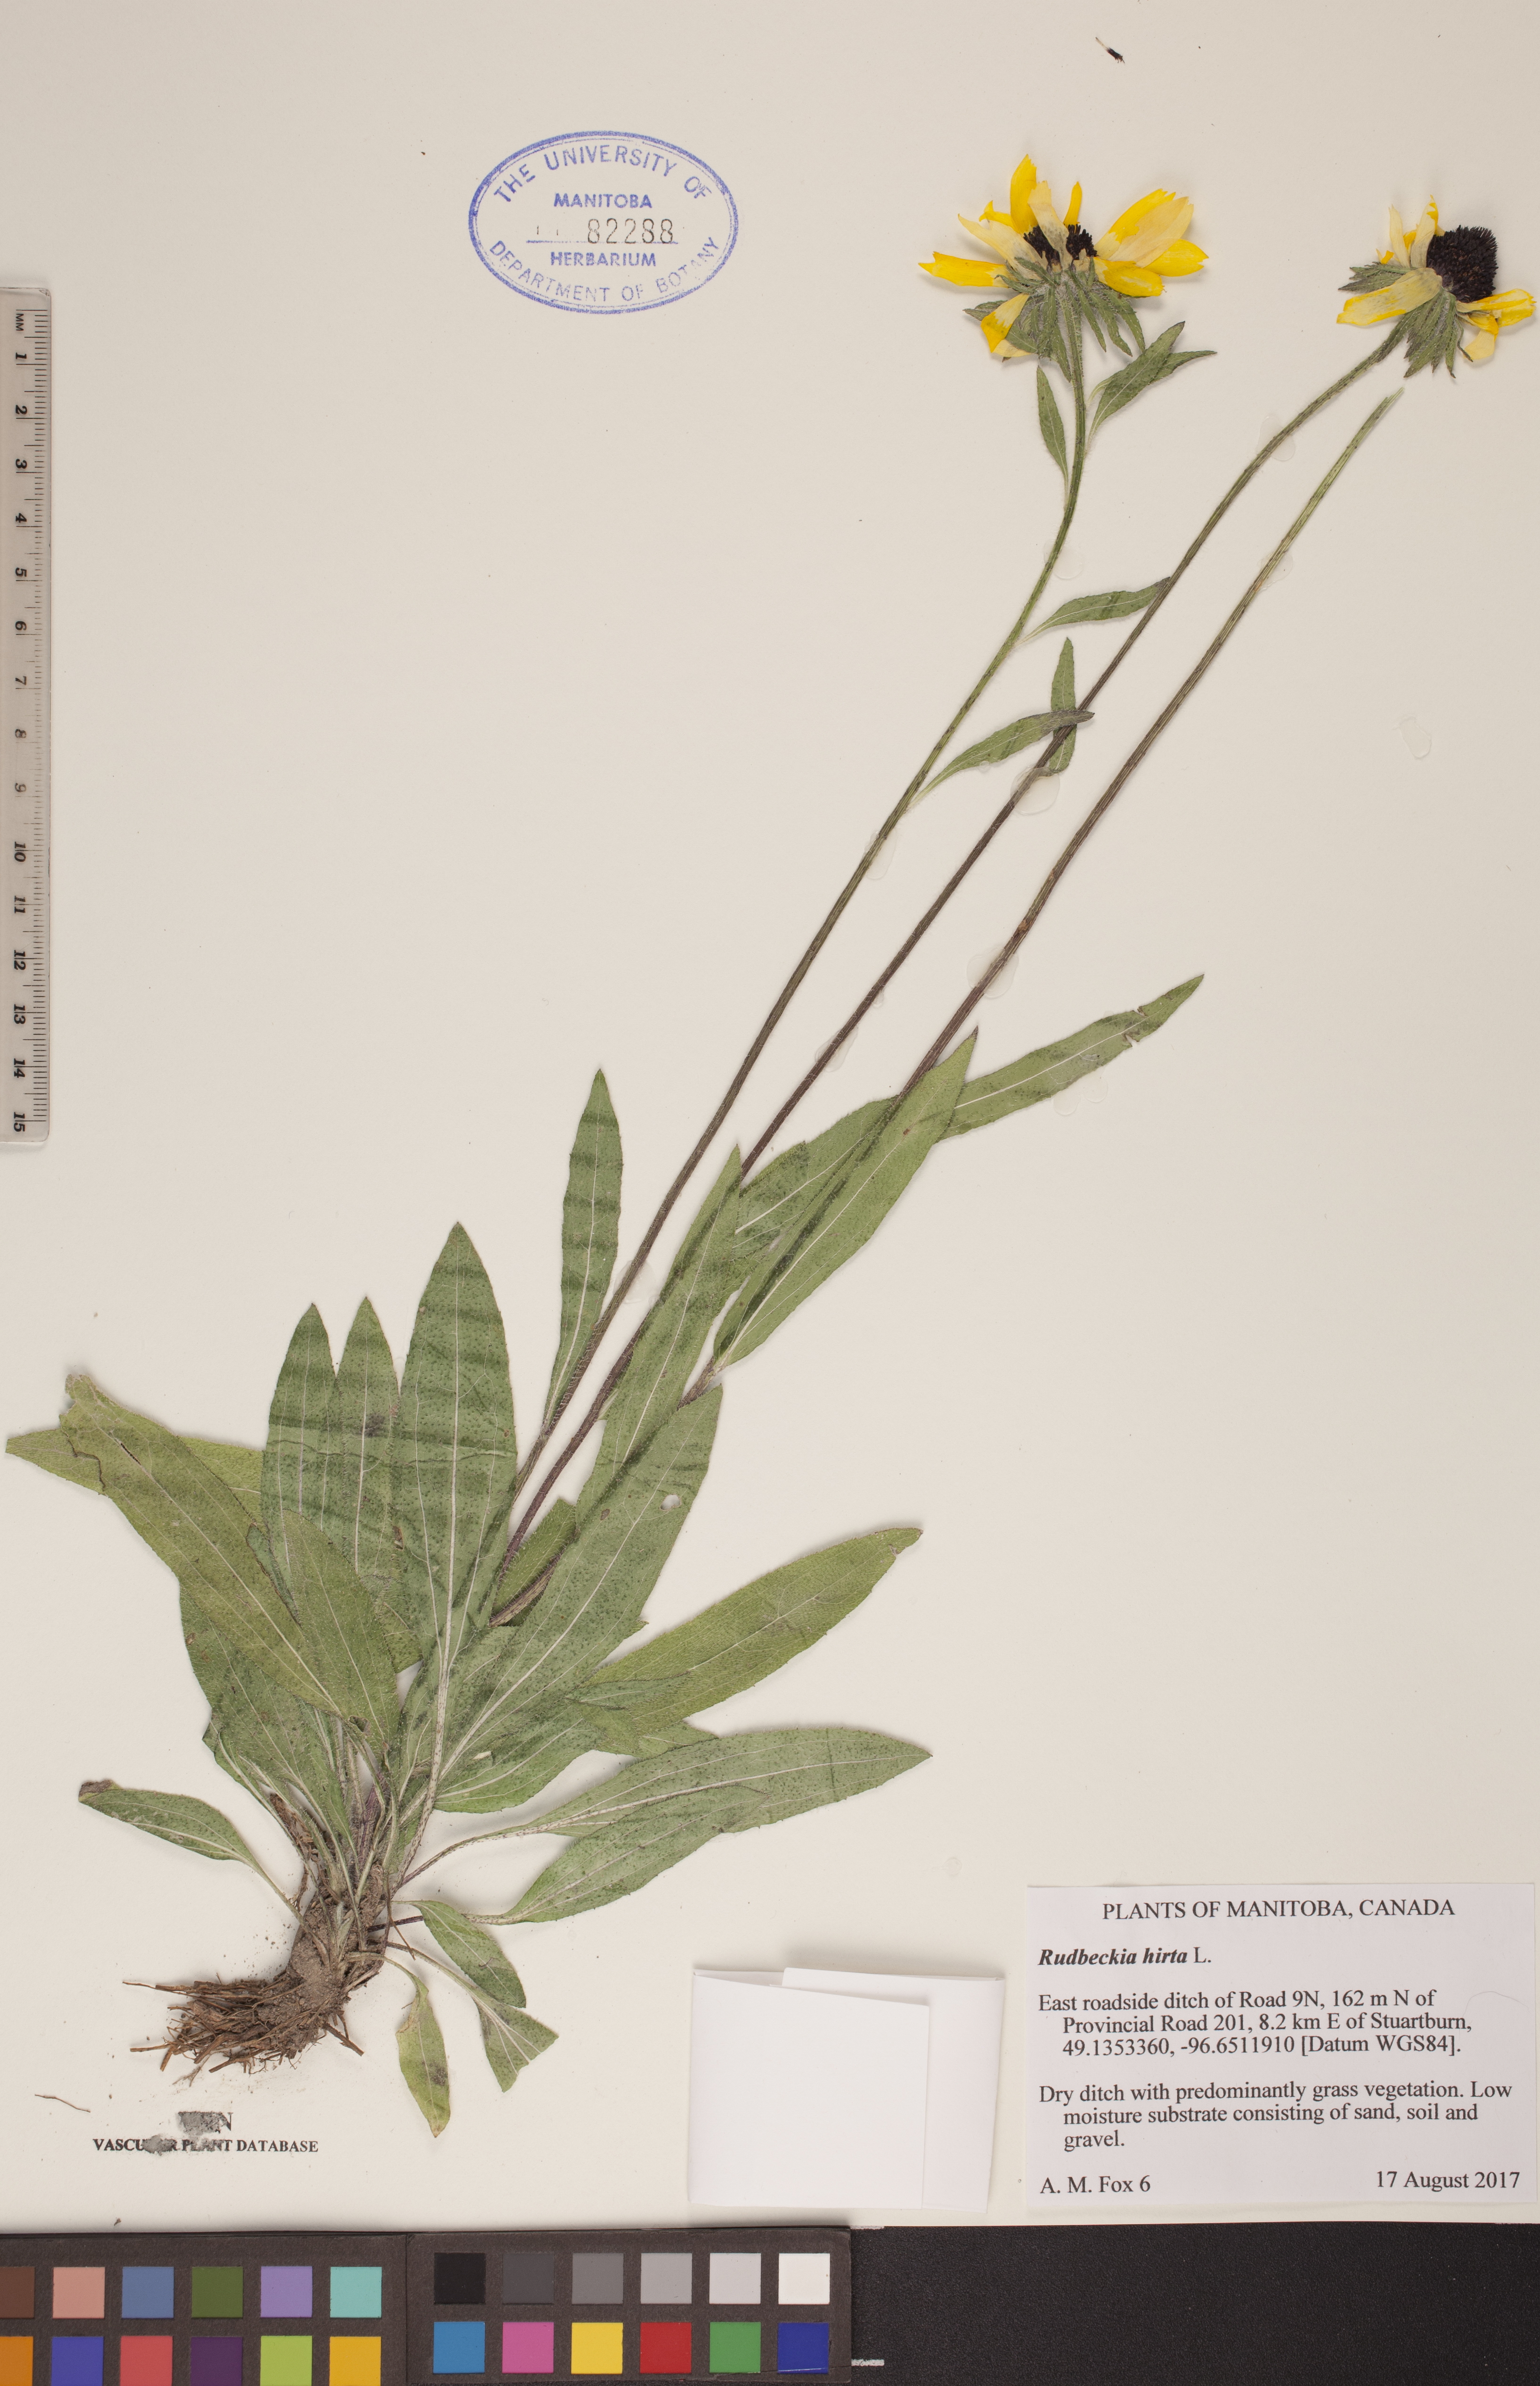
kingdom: Plantae
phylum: Tracheophyta
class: Magnoliopsida
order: Asterales
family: Asteraceae
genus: Rudbeckia
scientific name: Rudbeckia hirta
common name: Black-eyed-susan
